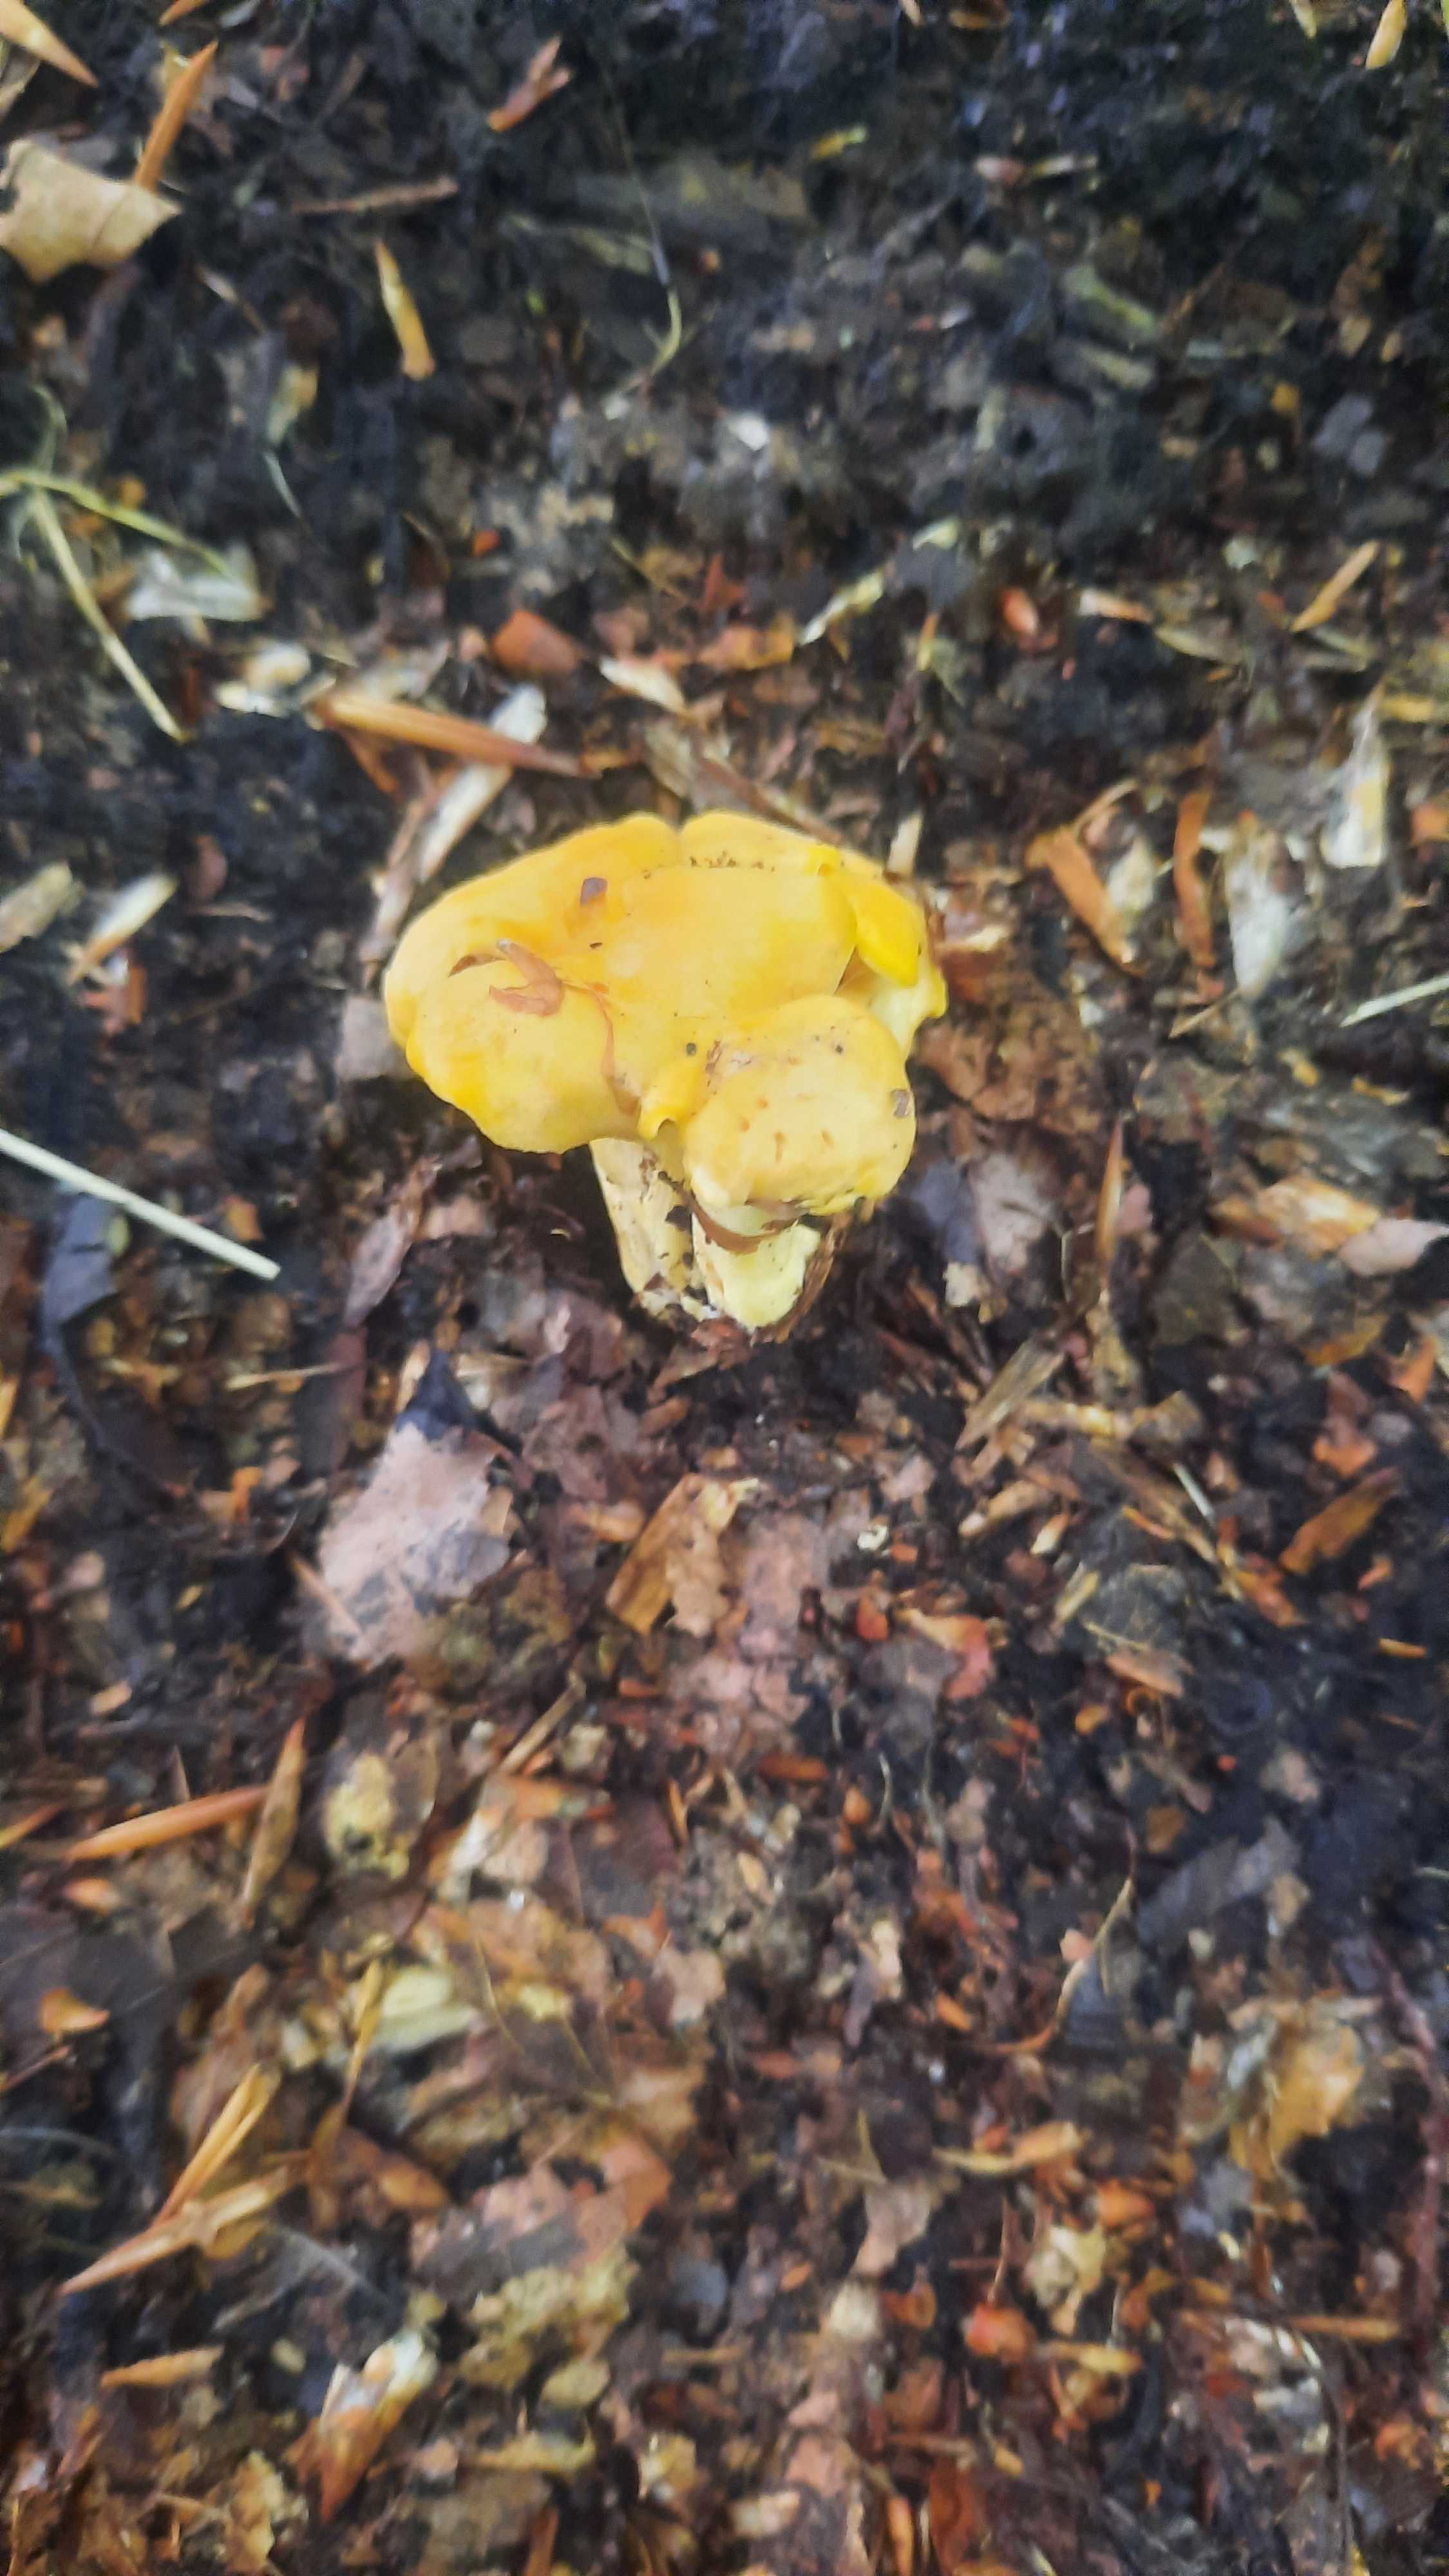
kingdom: Fungi
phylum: Basidiomycota
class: Agaricomycetes
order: Cantharellales
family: Hydnaceae
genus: Cantharellus
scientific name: Cantharellus cibarius
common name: almindelig kantarel
